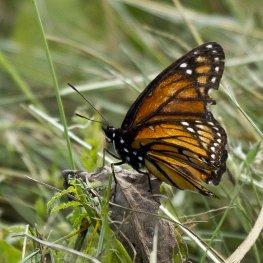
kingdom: Animalia
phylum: Arthropoda
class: Insecta
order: Lepidoptera
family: Nymphalidae
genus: Limenitis
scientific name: Limenitis archippus
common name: Viceroy
